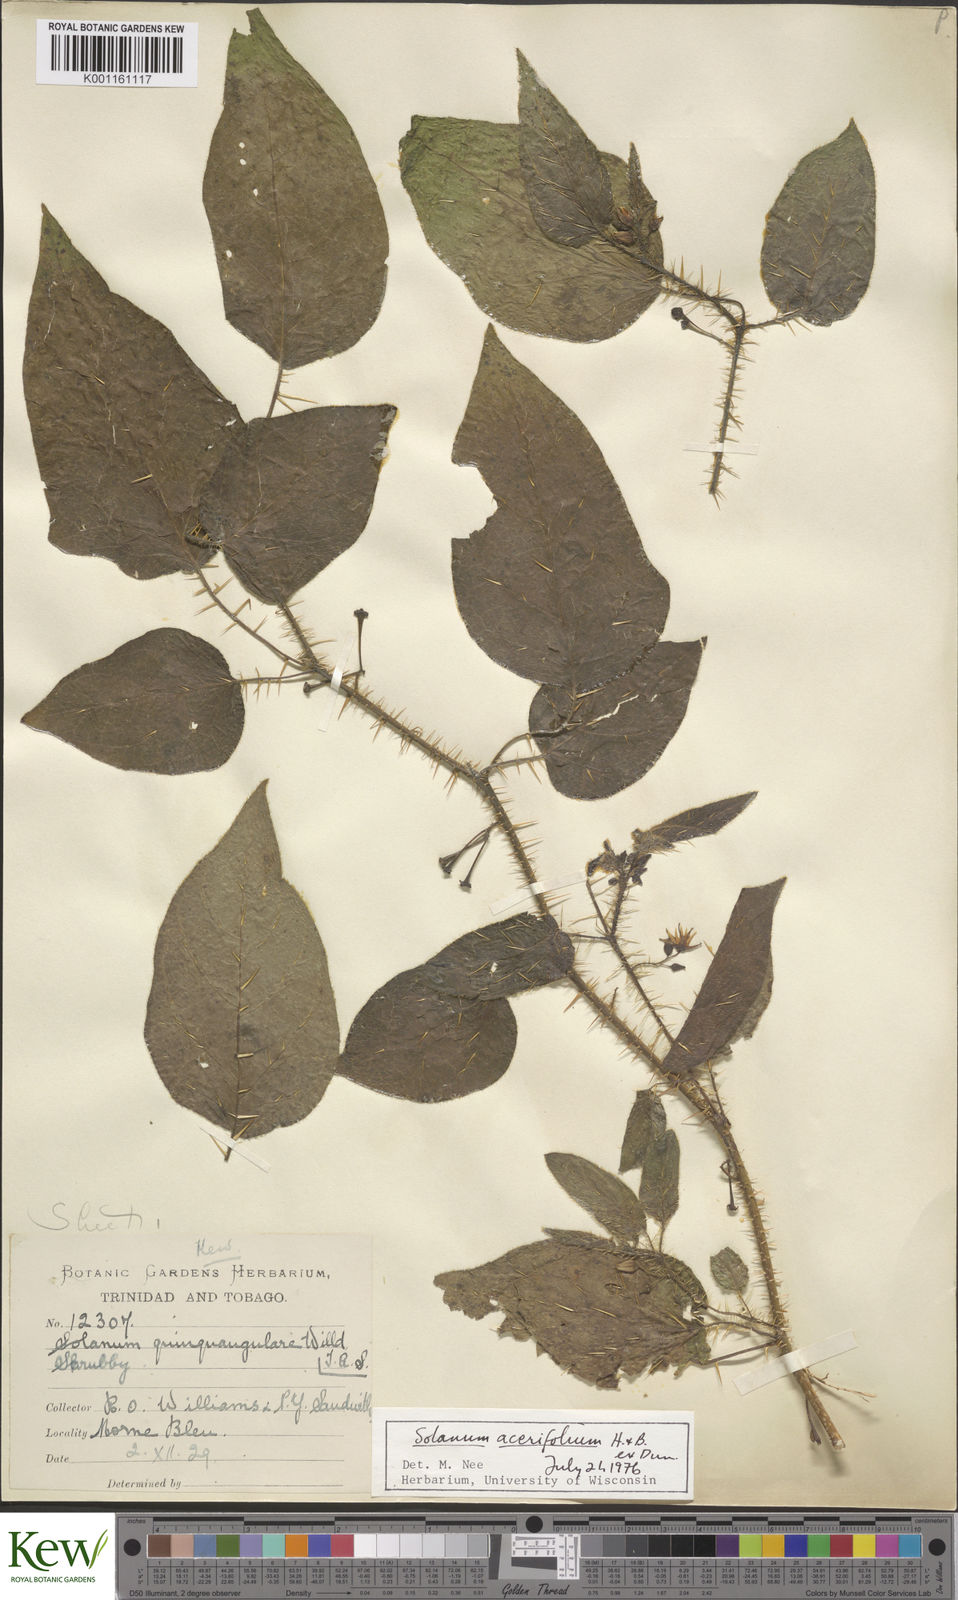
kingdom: Plantae
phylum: Tracheophyta
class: Magnoliopsida
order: Solanales
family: Solanaceae
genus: Solanum
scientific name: Solanum
